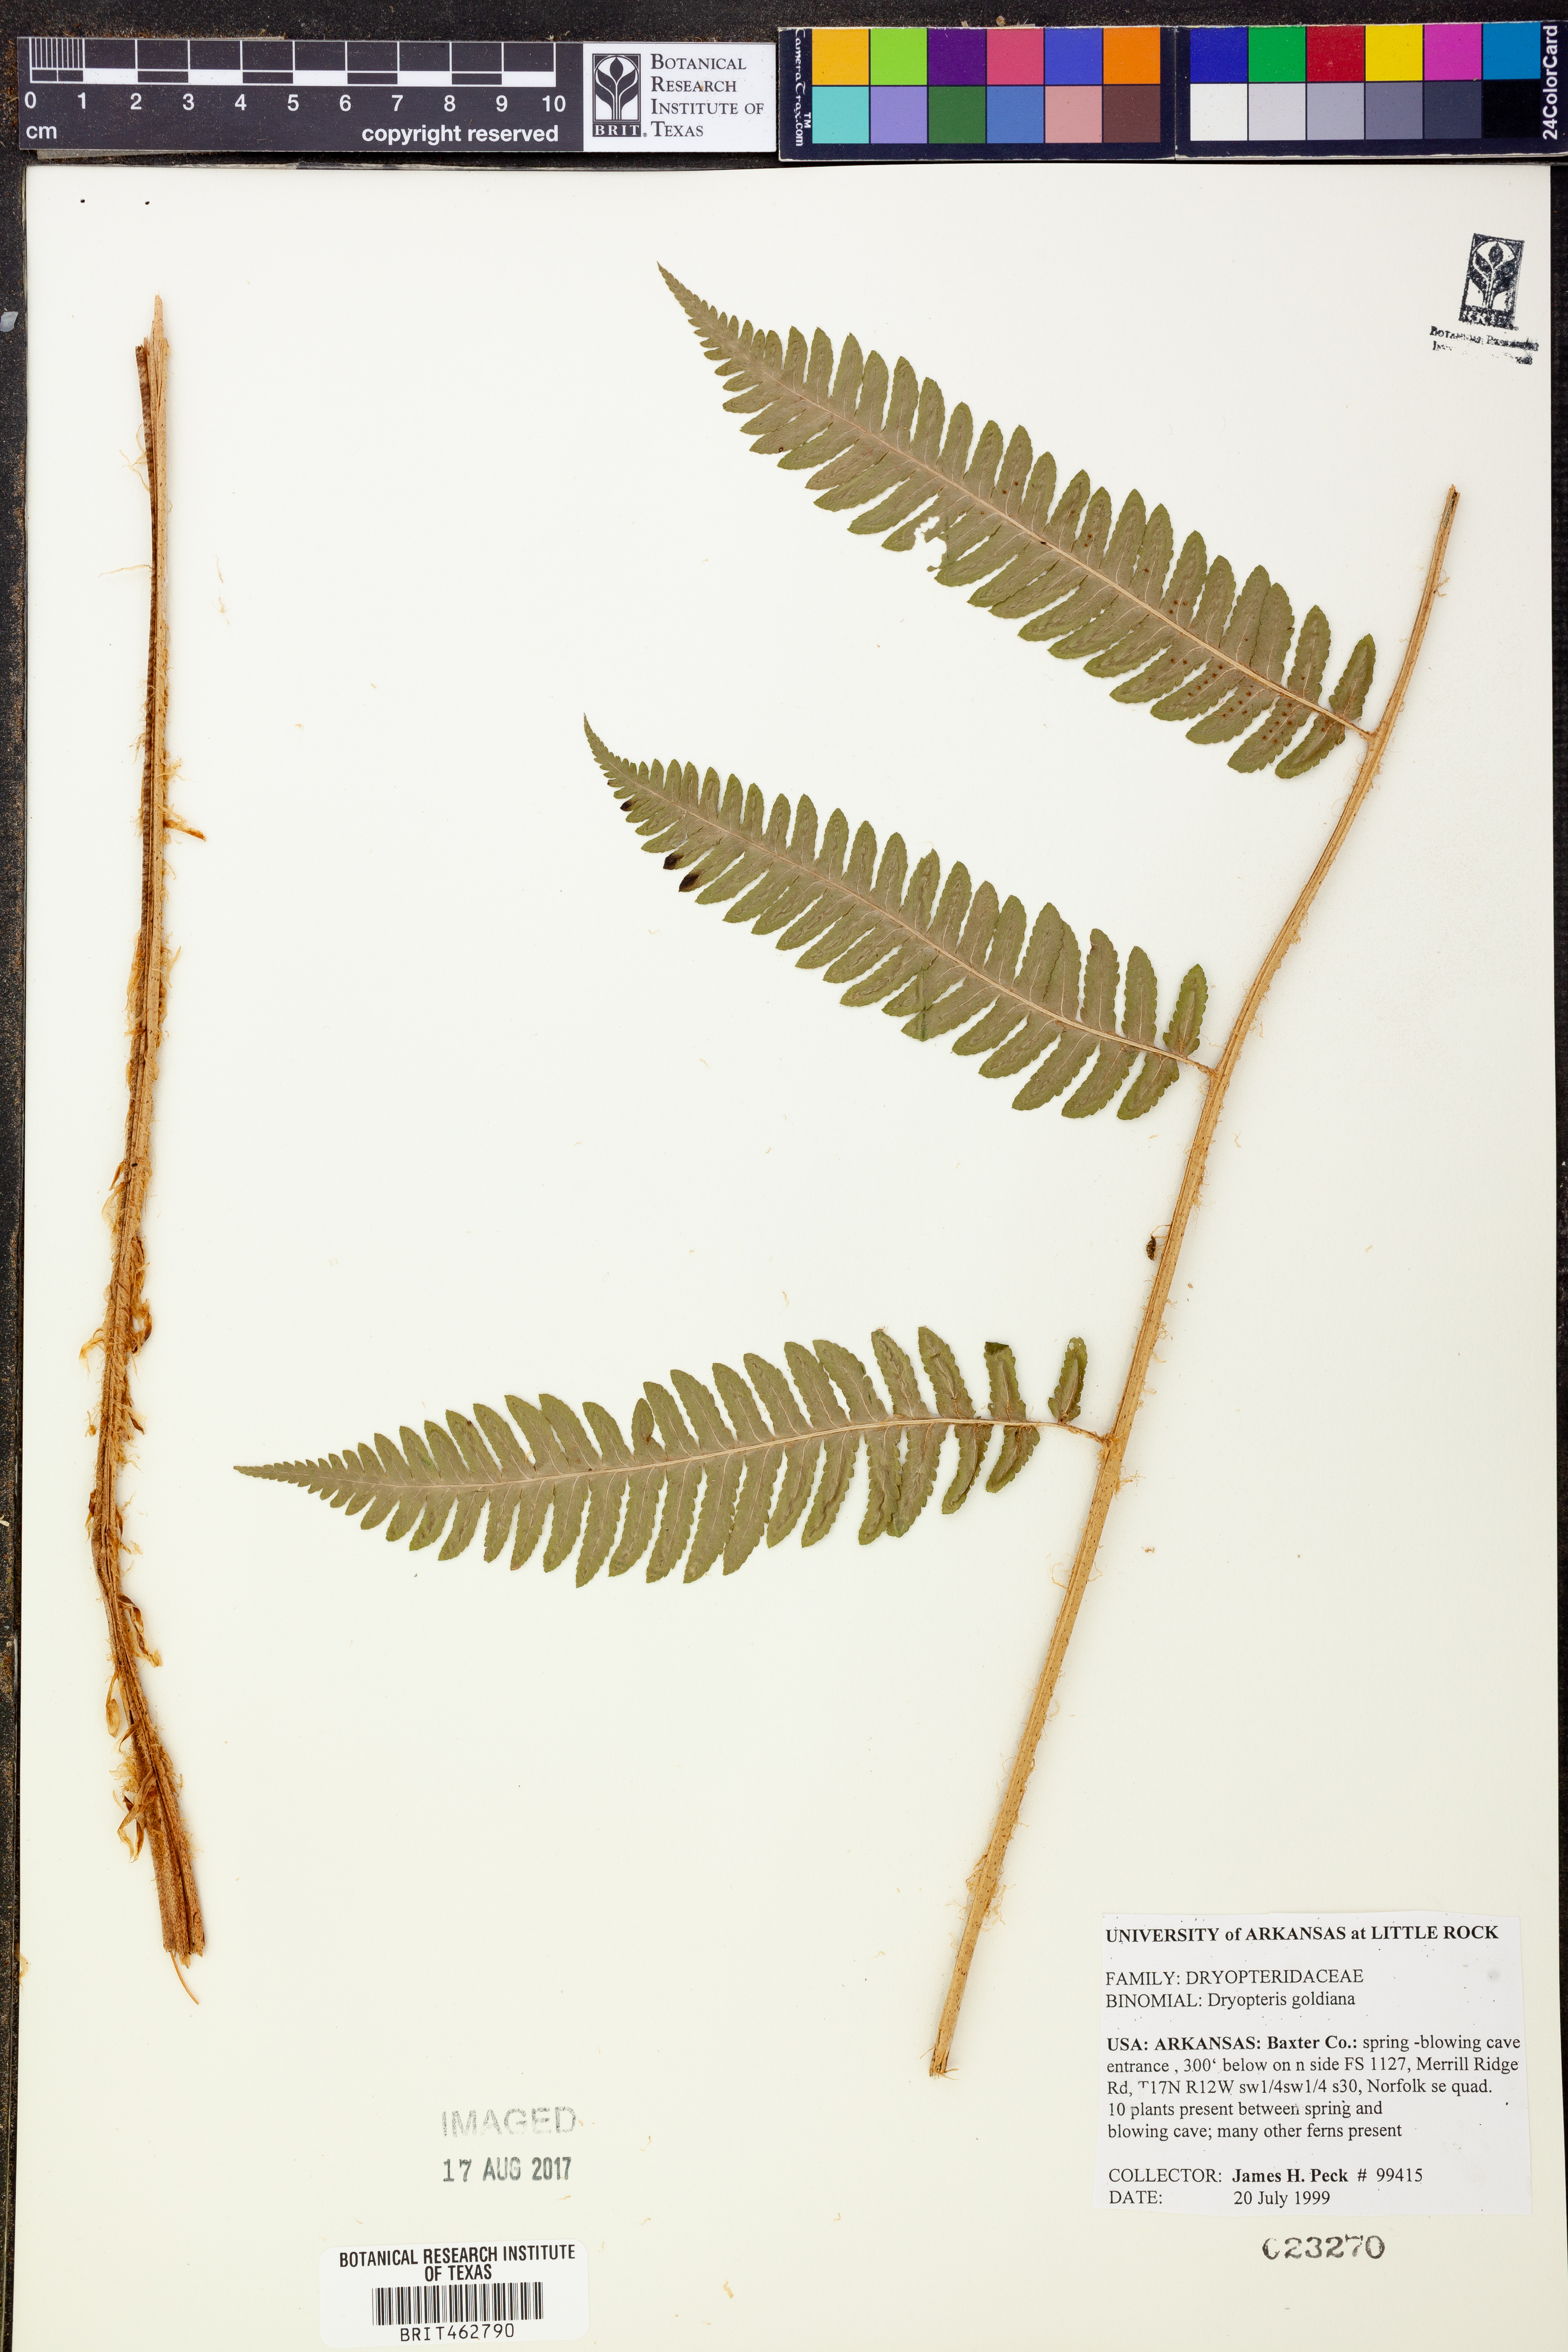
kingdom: Plantae
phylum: Tracheophyta
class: Polypodiopsida
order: Polypodiales
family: Dryopteridaceae
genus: Dryopteris
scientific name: Dryopteris goeldiana
